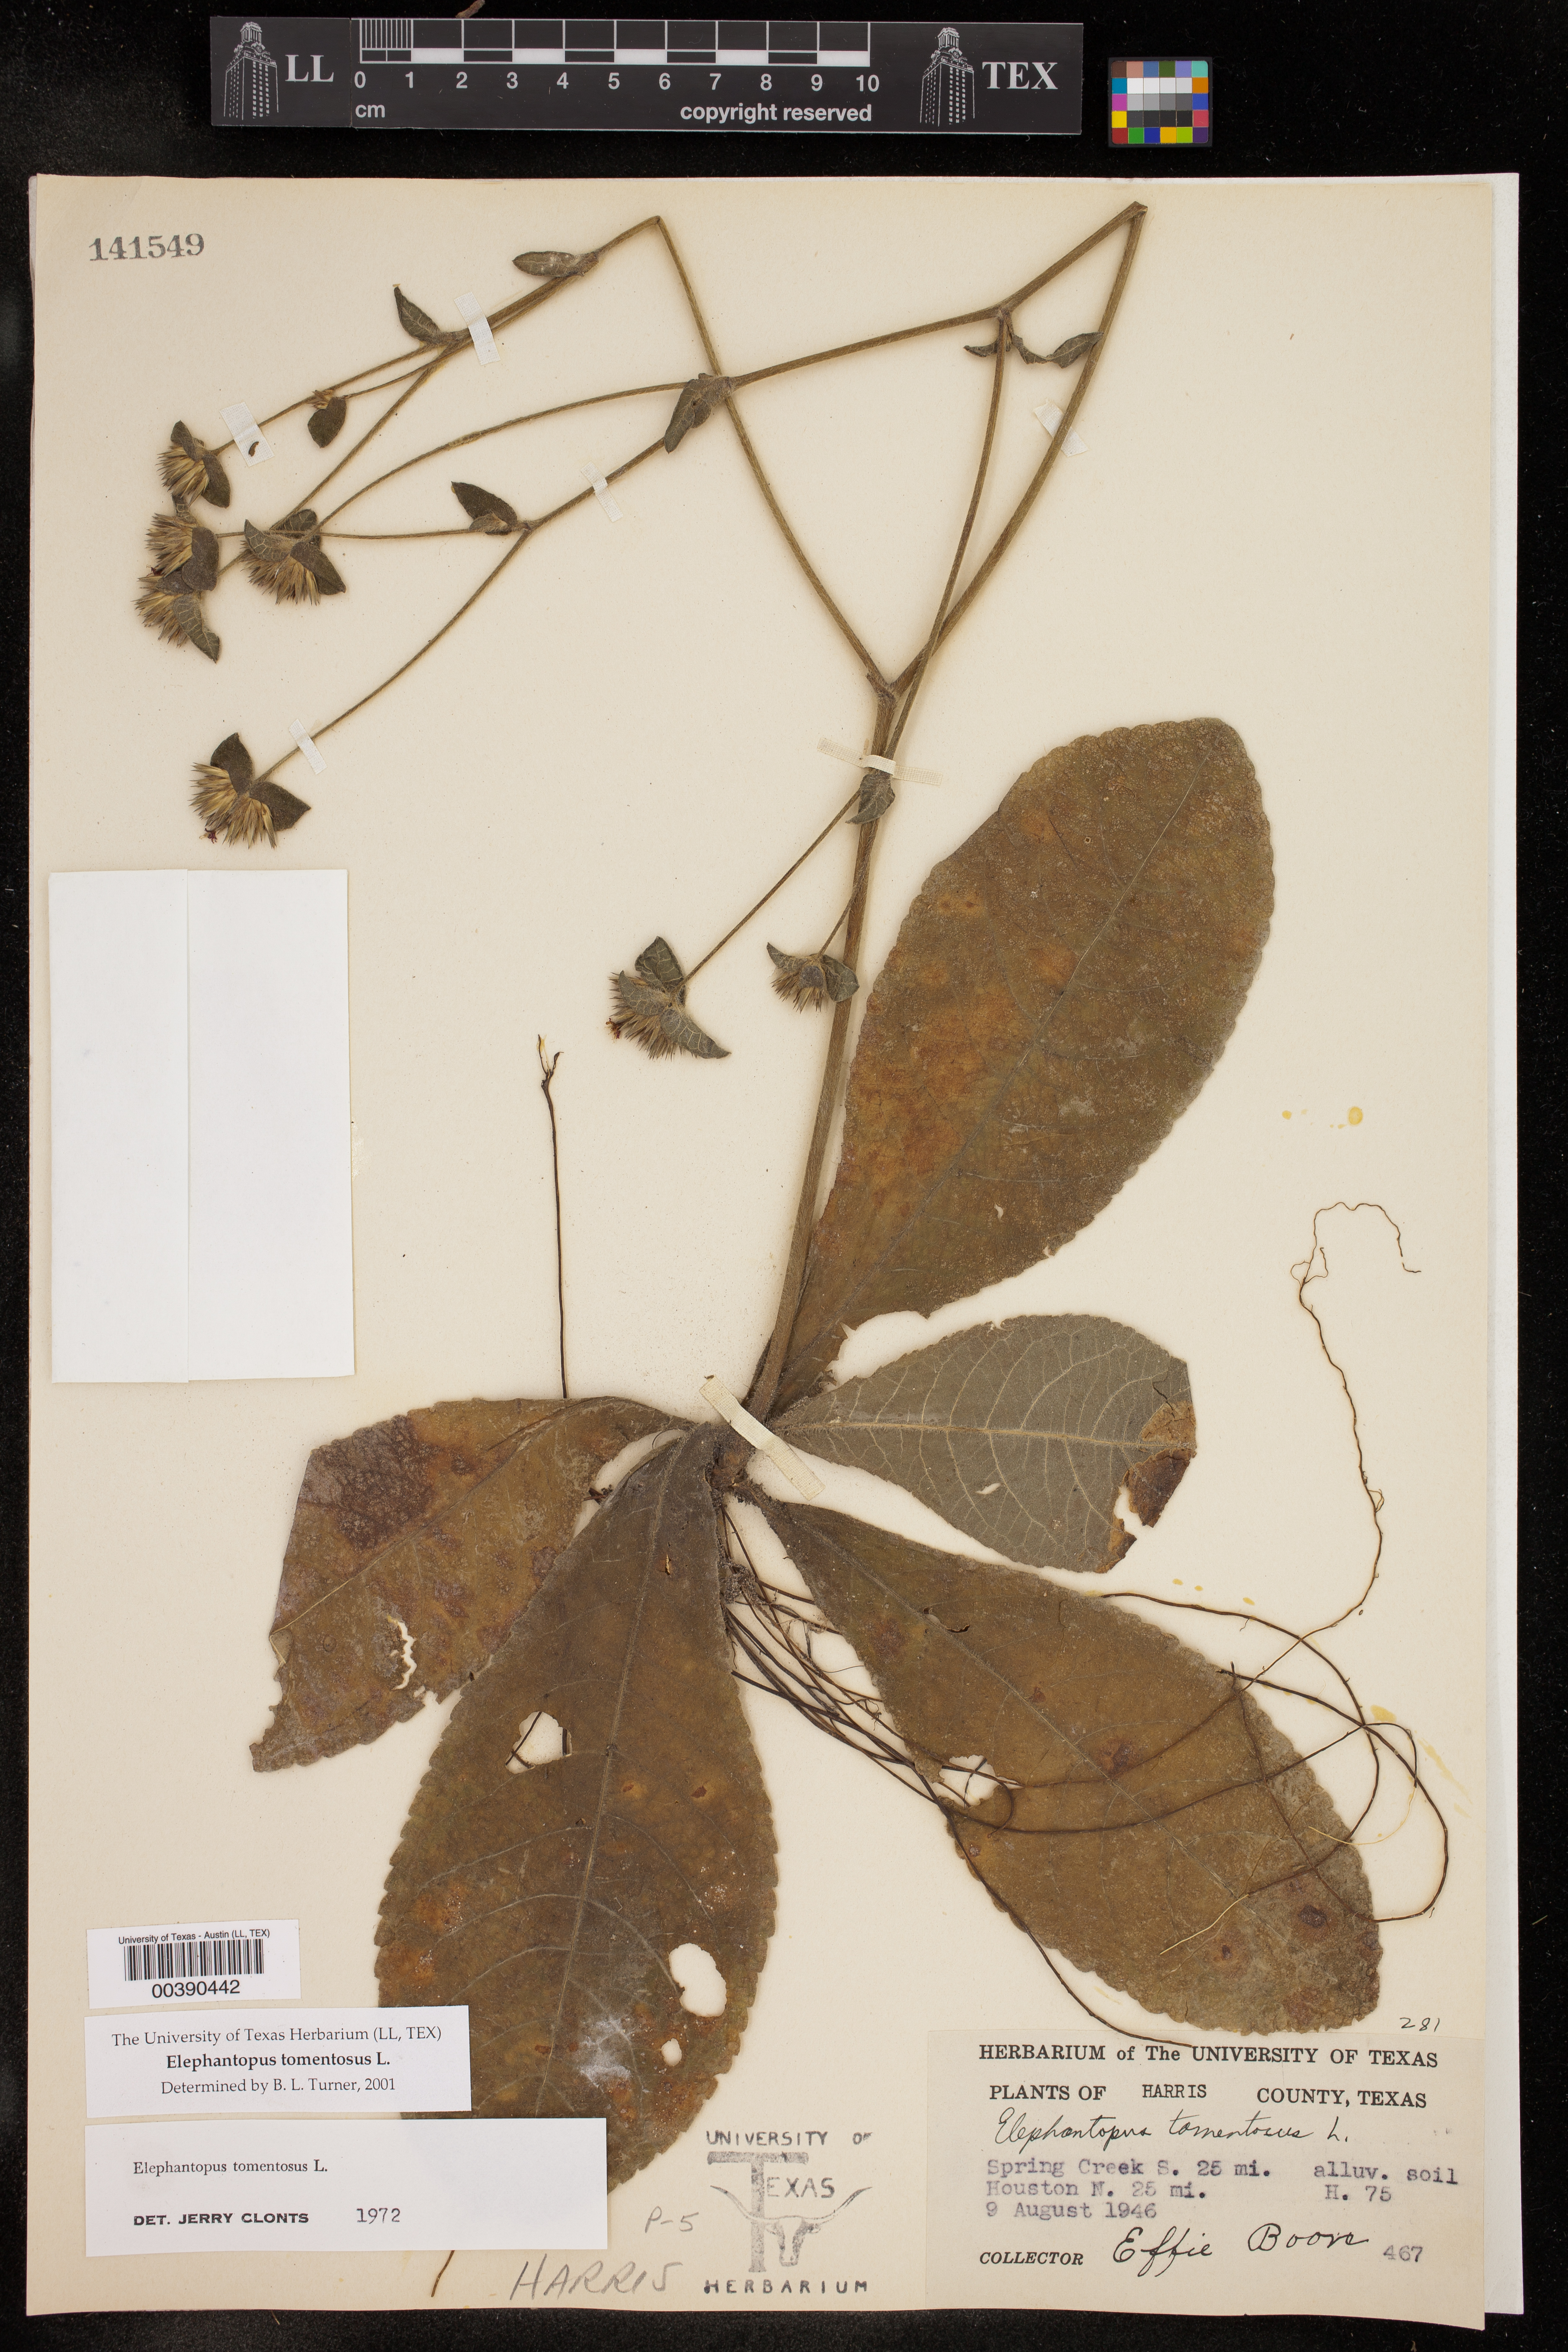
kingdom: Plantae
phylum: Tracheophyta
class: Magnoliopsida
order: Asterales
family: Asteraceae
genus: Elephantopus
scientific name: Elephantopus tomentosus
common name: Tobacco-weed
